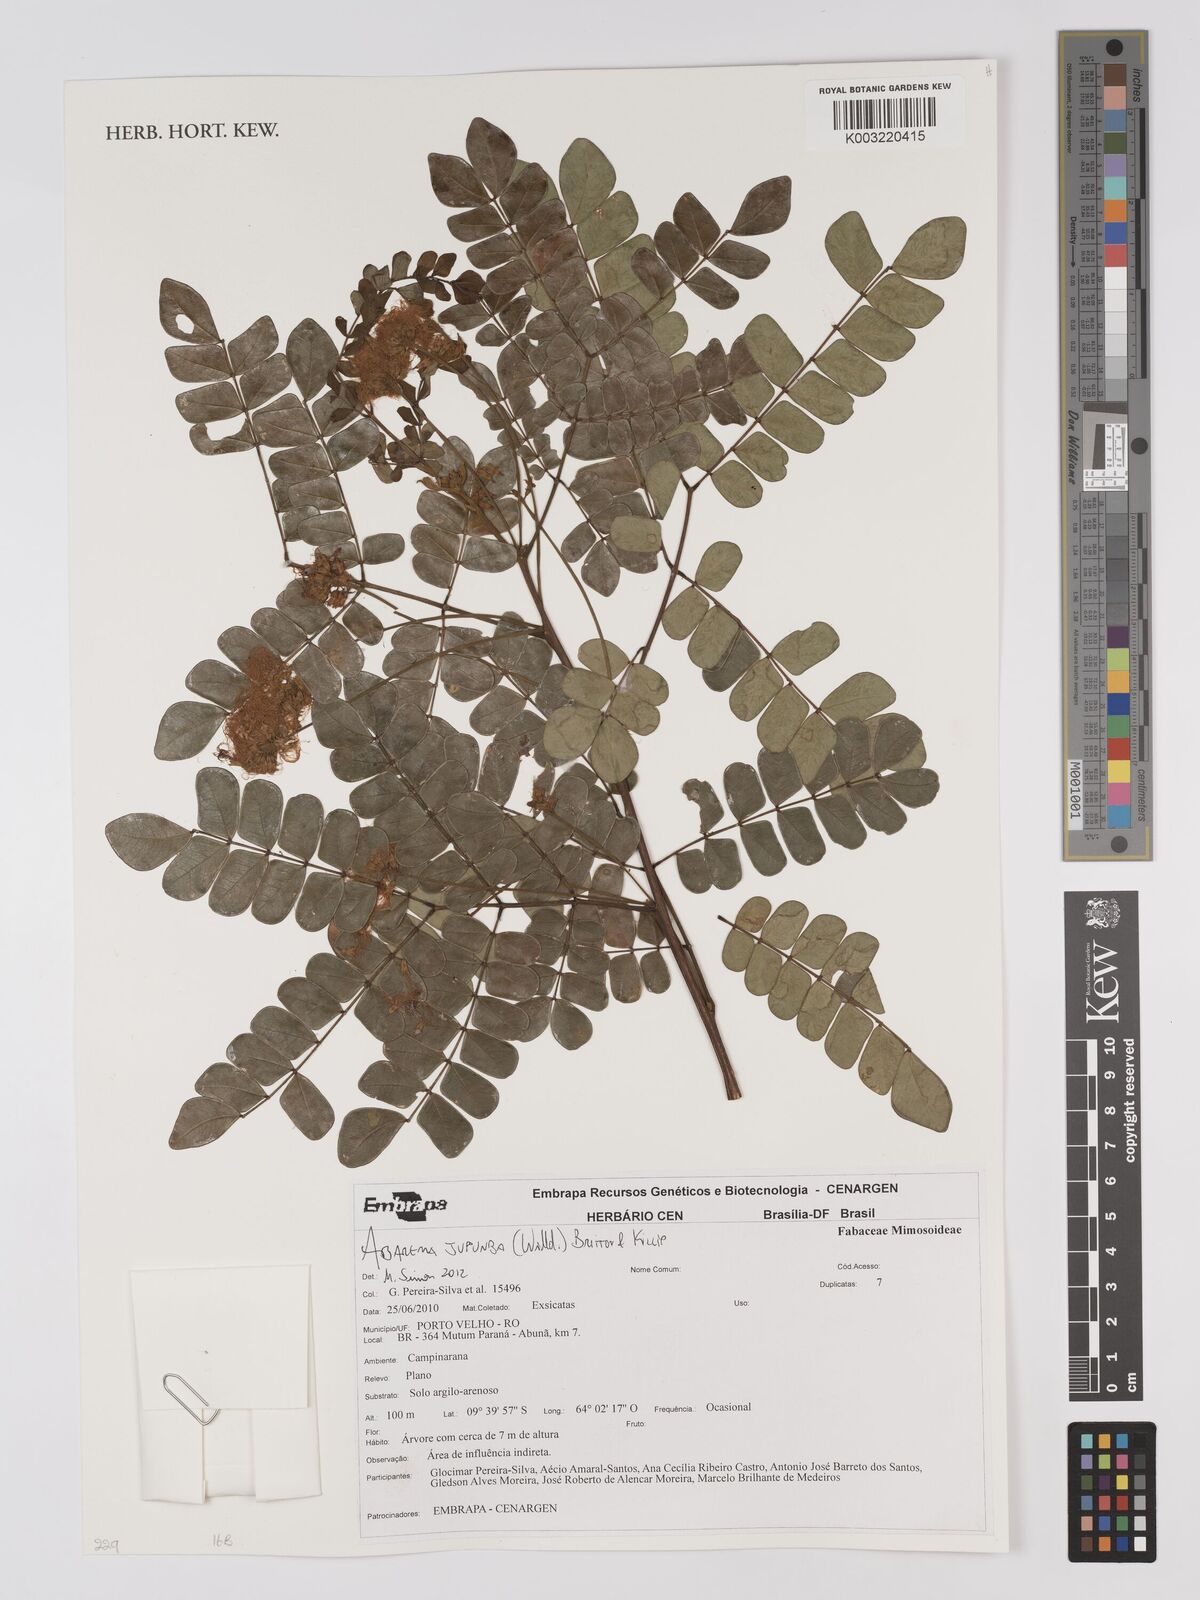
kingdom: Plantae
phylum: Tracheophyta
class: Magnoliopsida
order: Fabales
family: Fabaceae
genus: Jupunba
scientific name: Jupunba trapezifolia
